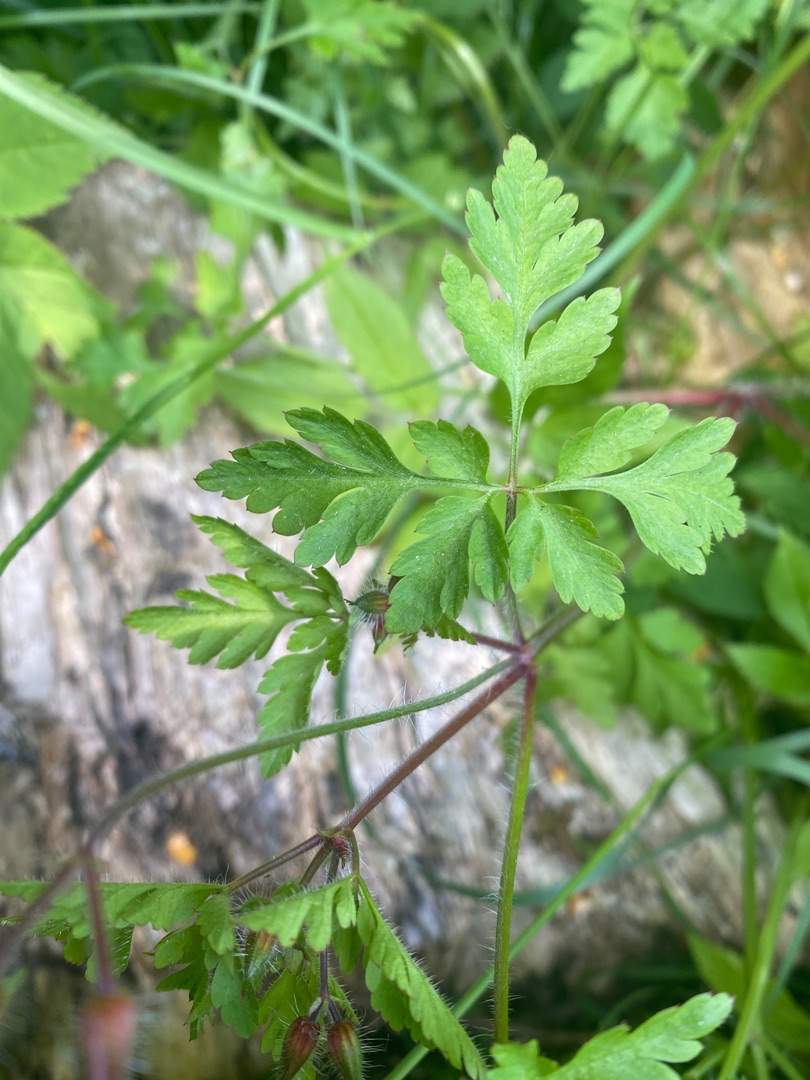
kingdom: Plantae
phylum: Tracheophyta
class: Magnoliopsida
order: Geraniales
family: Geraniaceae
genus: Geranium
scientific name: Geranium robertianum
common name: Stinkende storkenæb
